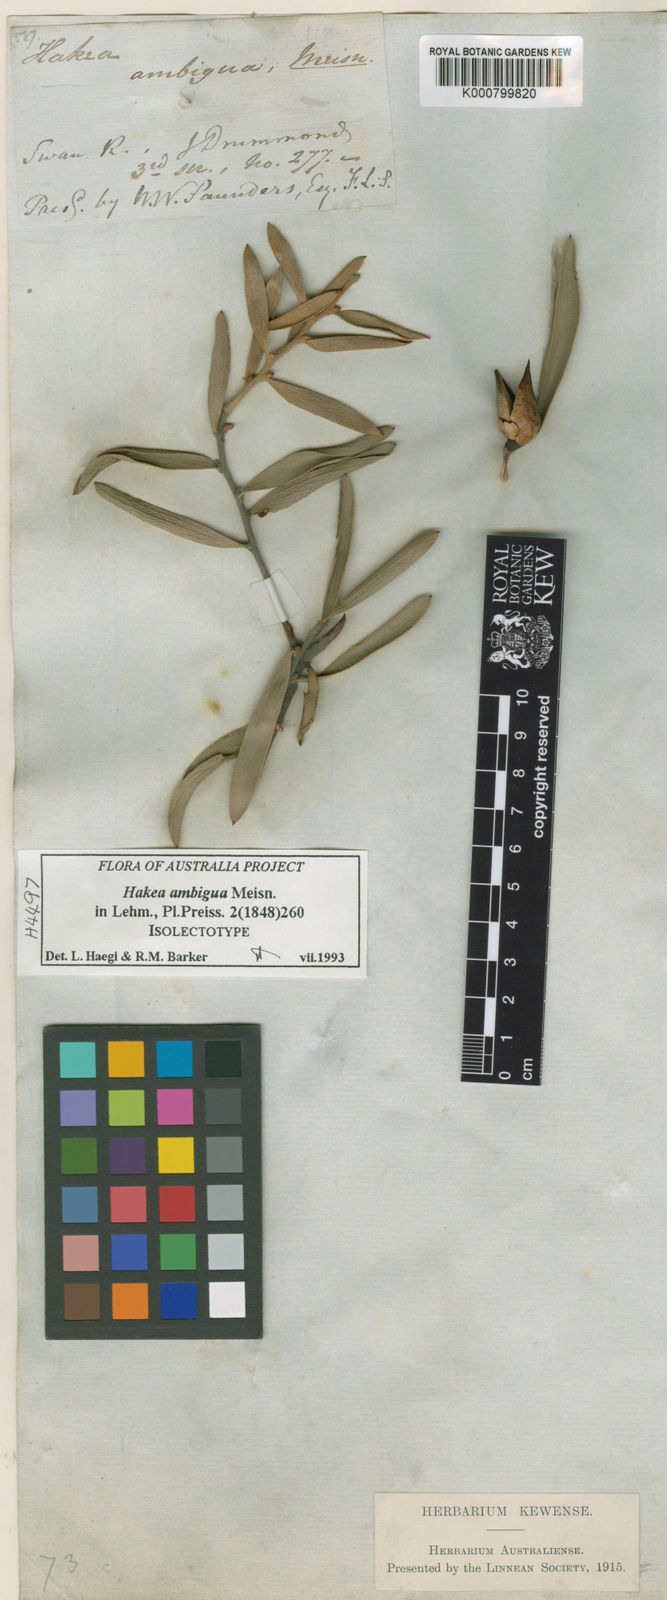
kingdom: Plantae
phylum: Tracheophyta
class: Magnoliopsida
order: Proteales
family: Proteaceae
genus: Hakea
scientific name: Hakea ambigua
